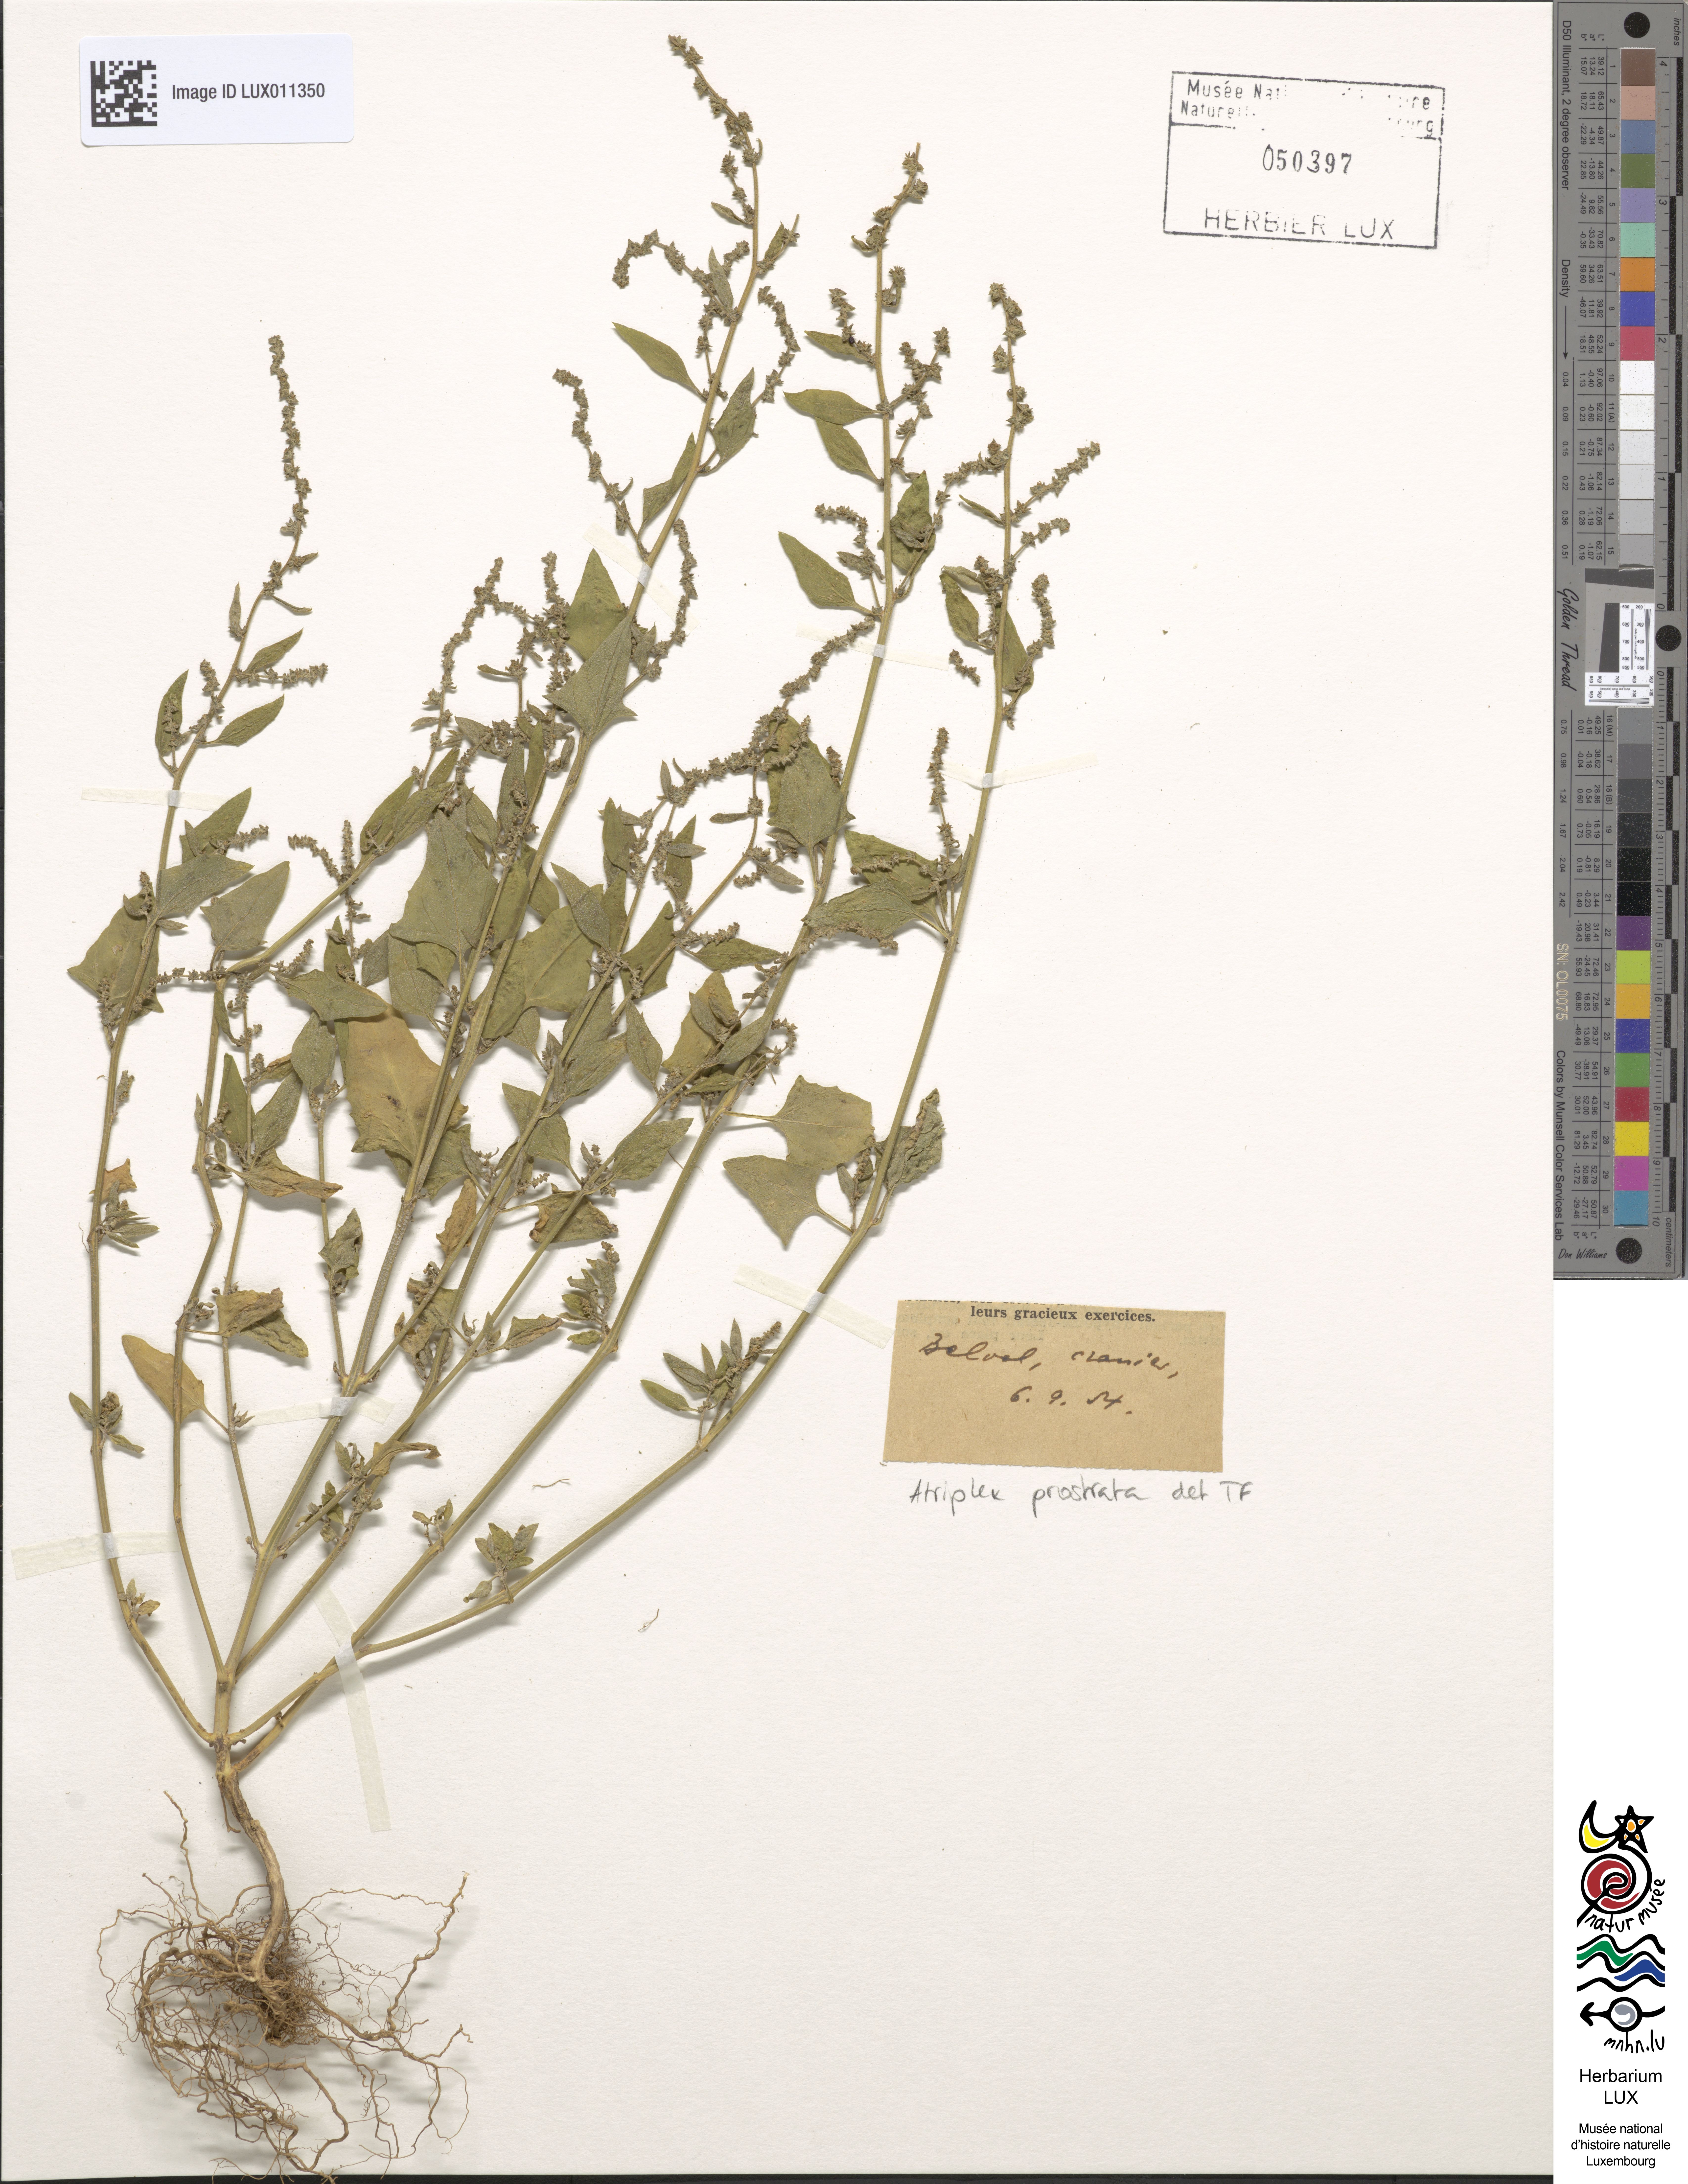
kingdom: Plantae
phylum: Tracheophyta
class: Magnoliopsida
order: Caryophyllales
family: Amaranthaceae
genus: Atriplex
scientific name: Atriplex prostrata
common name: Spear-leaved orache
